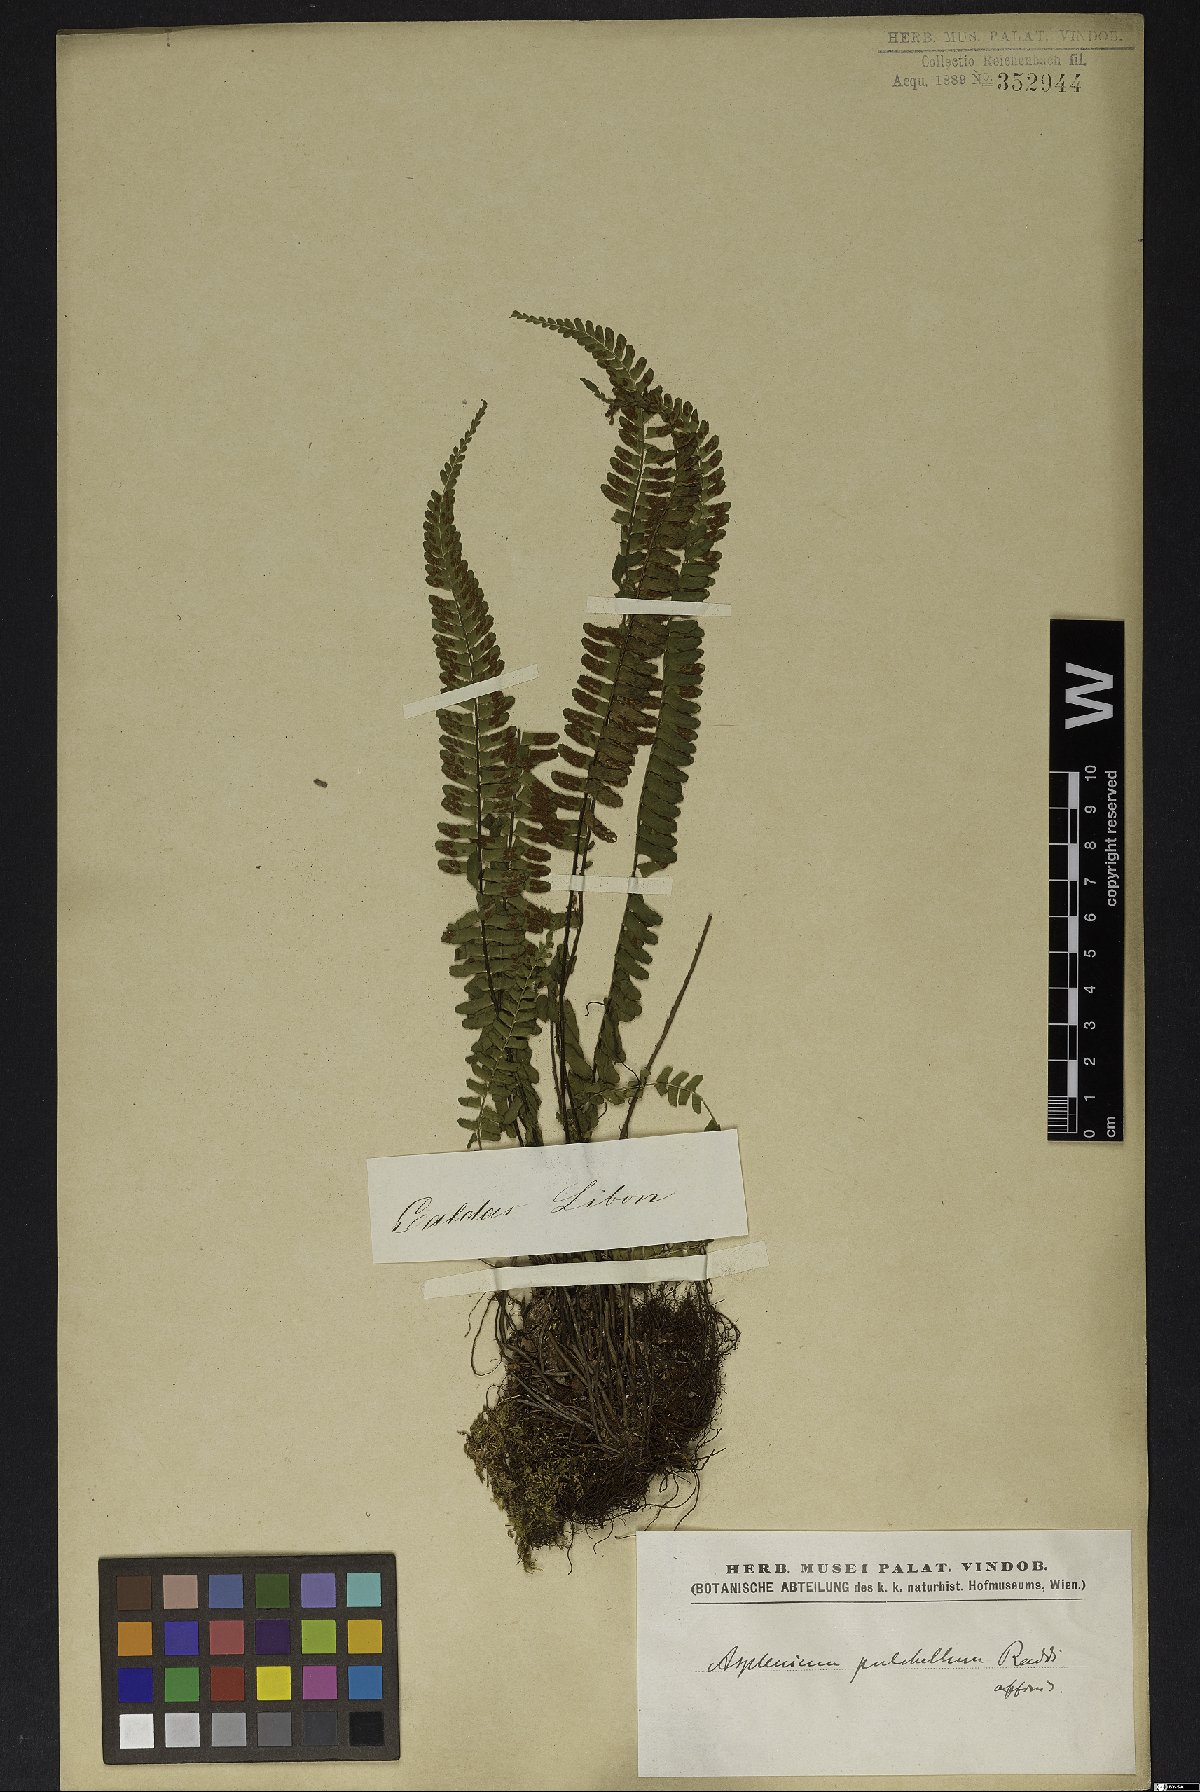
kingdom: Plantae
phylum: Tracheophyta
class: Polypodiopsida
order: Polypodiales
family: Aspleniaceae
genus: Asplenium
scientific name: Asplenium pulchellum
